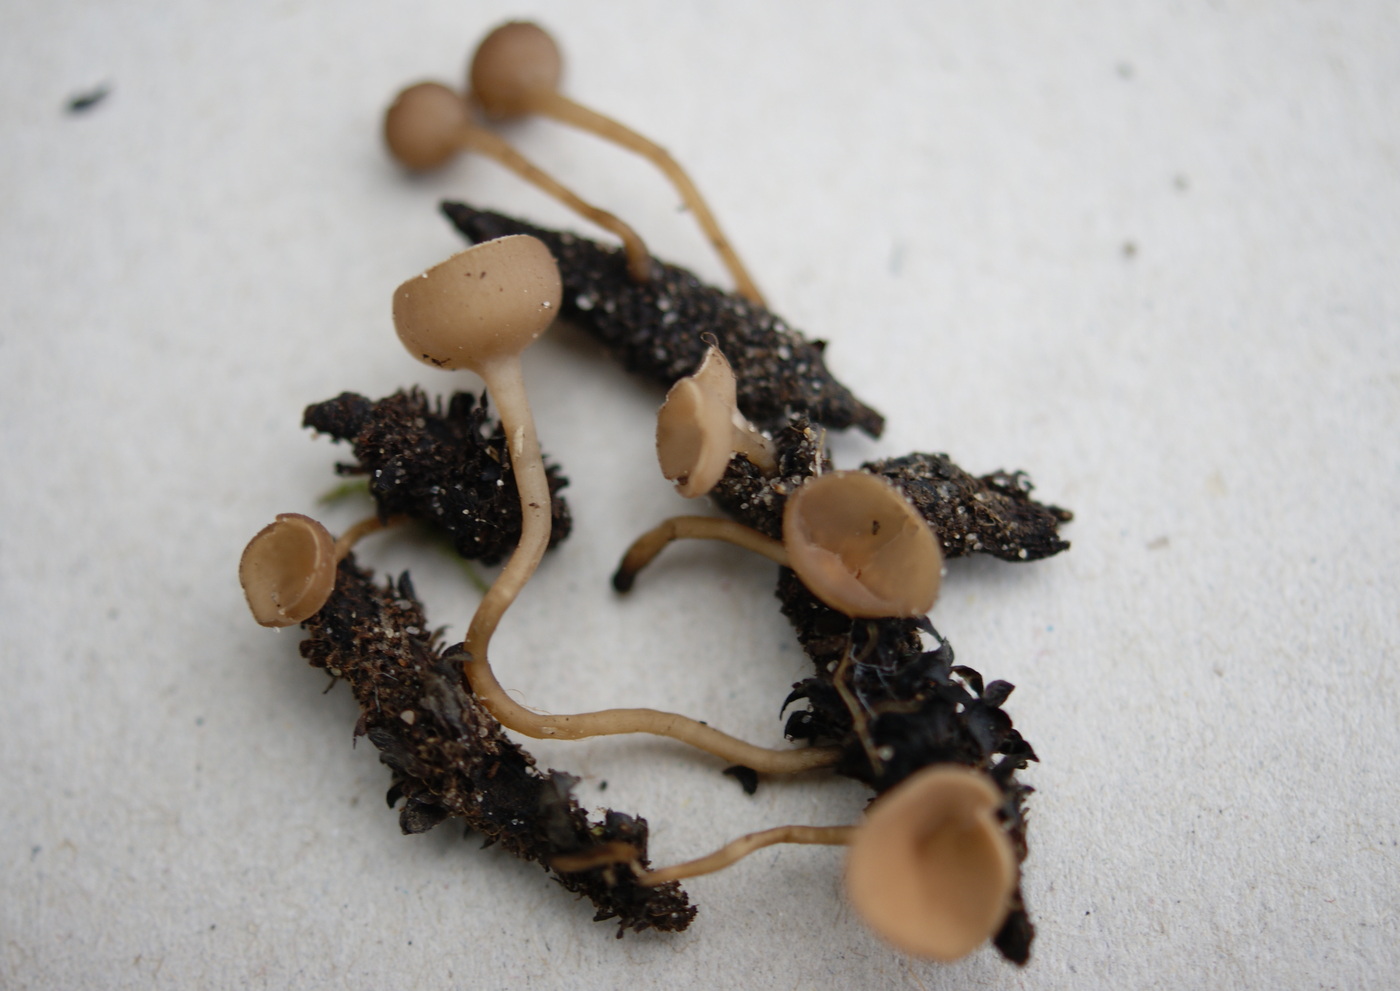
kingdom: Fungi
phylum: Ascomycota
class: Leotiomycetes
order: Helotiales
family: Sclerotiniaceae
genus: Ciboria
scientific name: Ciboria caucus
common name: rakle-knoldskive
